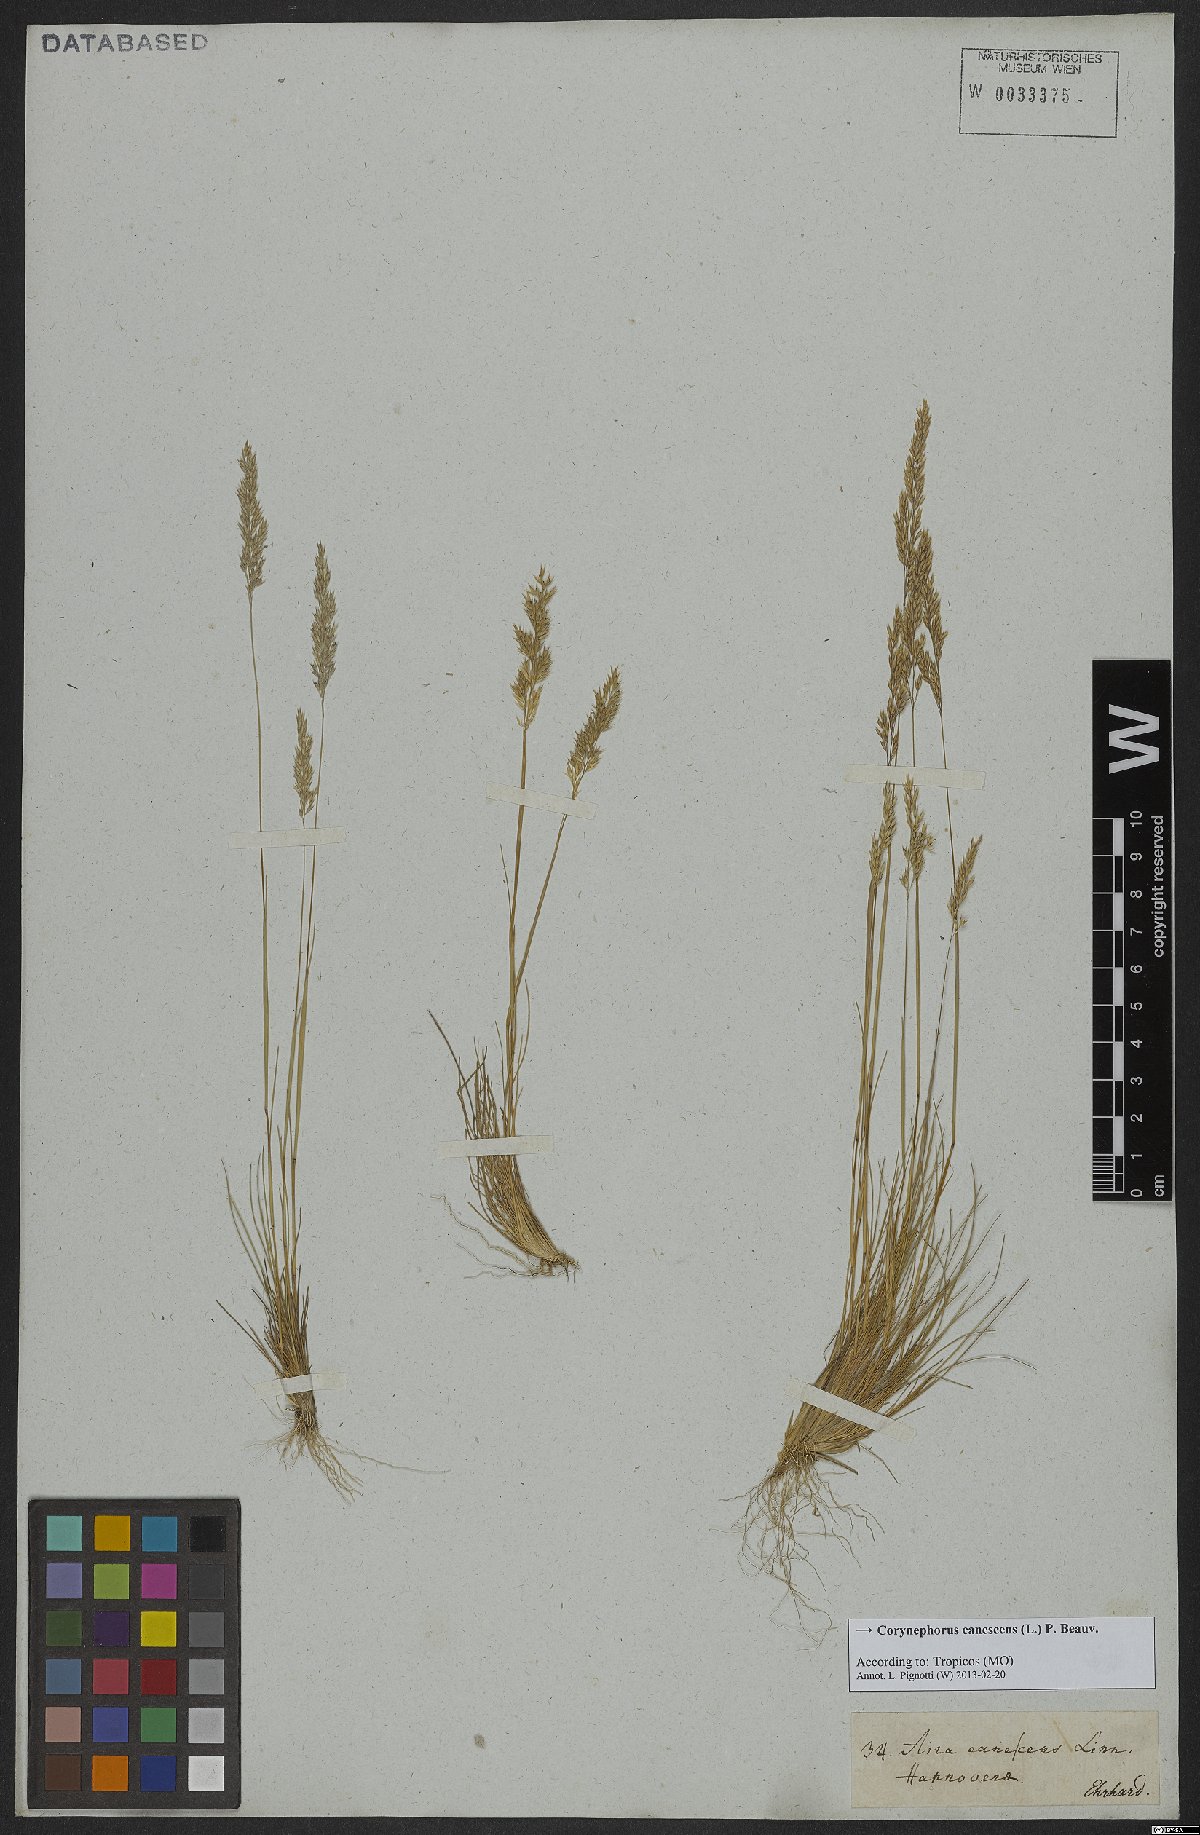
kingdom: Plantae
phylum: Tracheophyta
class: Liliopsida
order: Poales
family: Poaceae
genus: Corynephorus
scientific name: Corynephorus canescens
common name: Grey hair-grass
